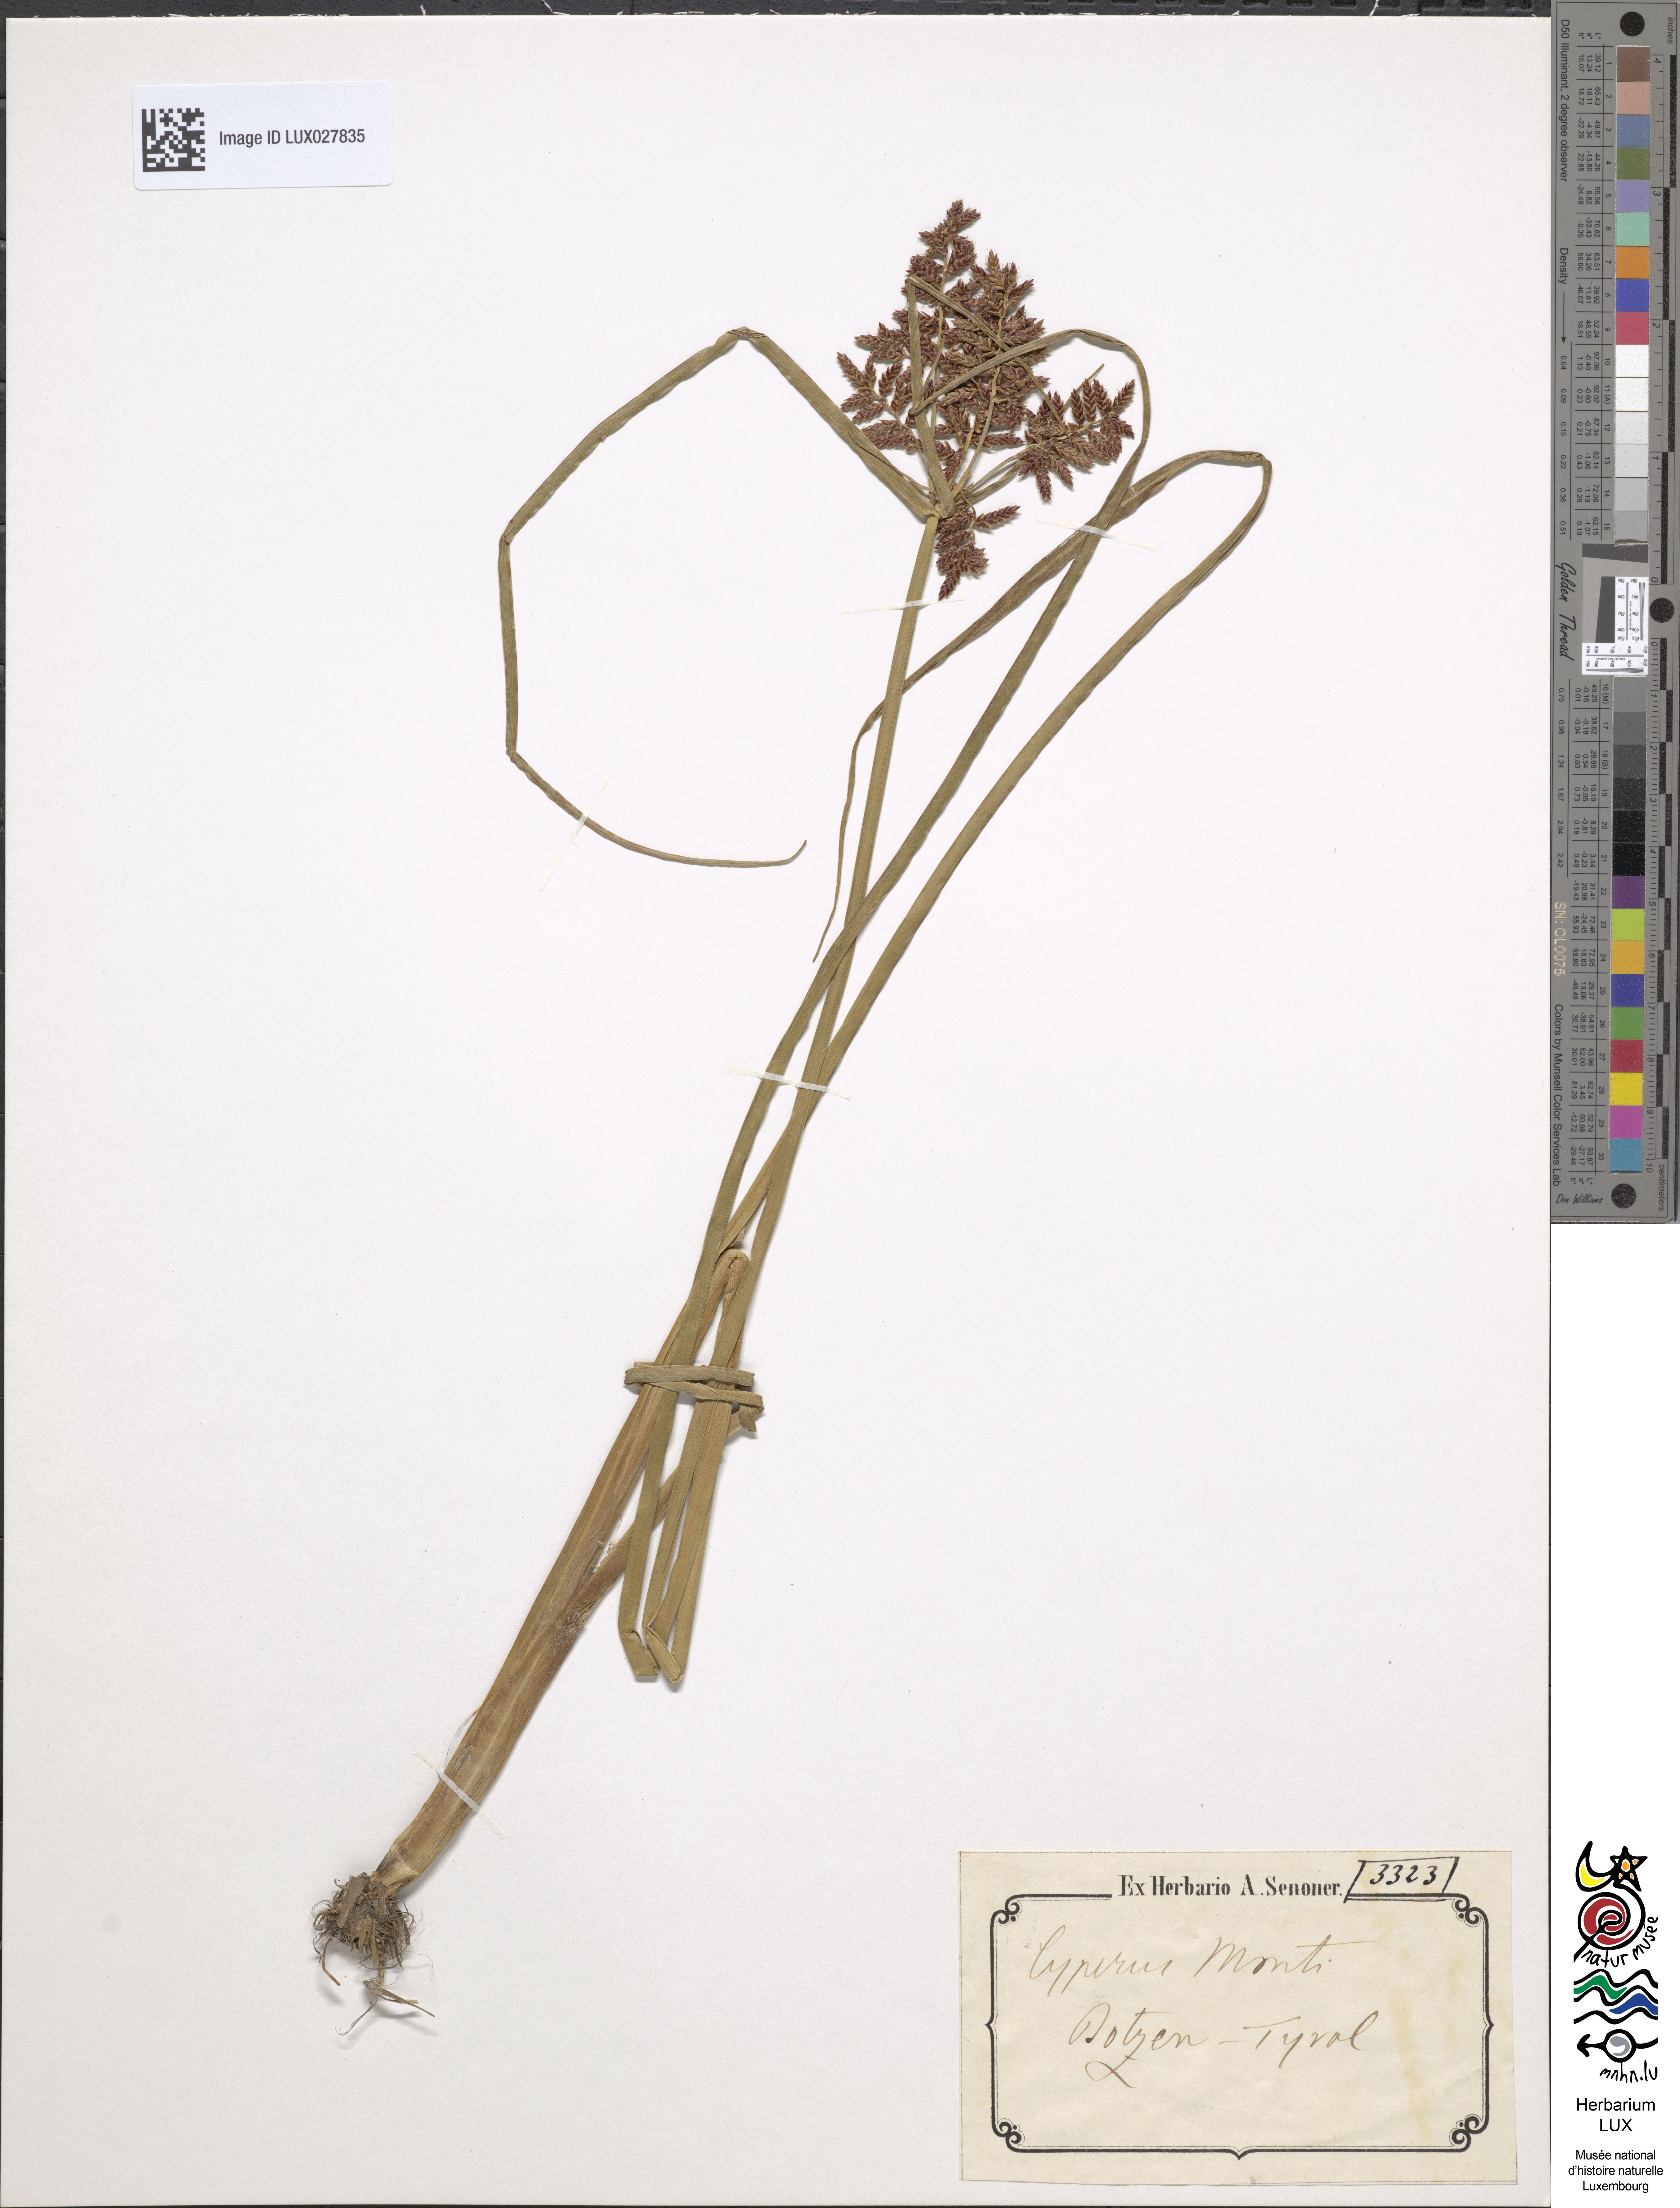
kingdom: Plantae
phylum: Tracheophyta
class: Liliopsida
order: Poales
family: Cyperaceae
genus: Cyperus
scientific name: Cyperus serotinus
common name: Tidalmarsh flatsedge
